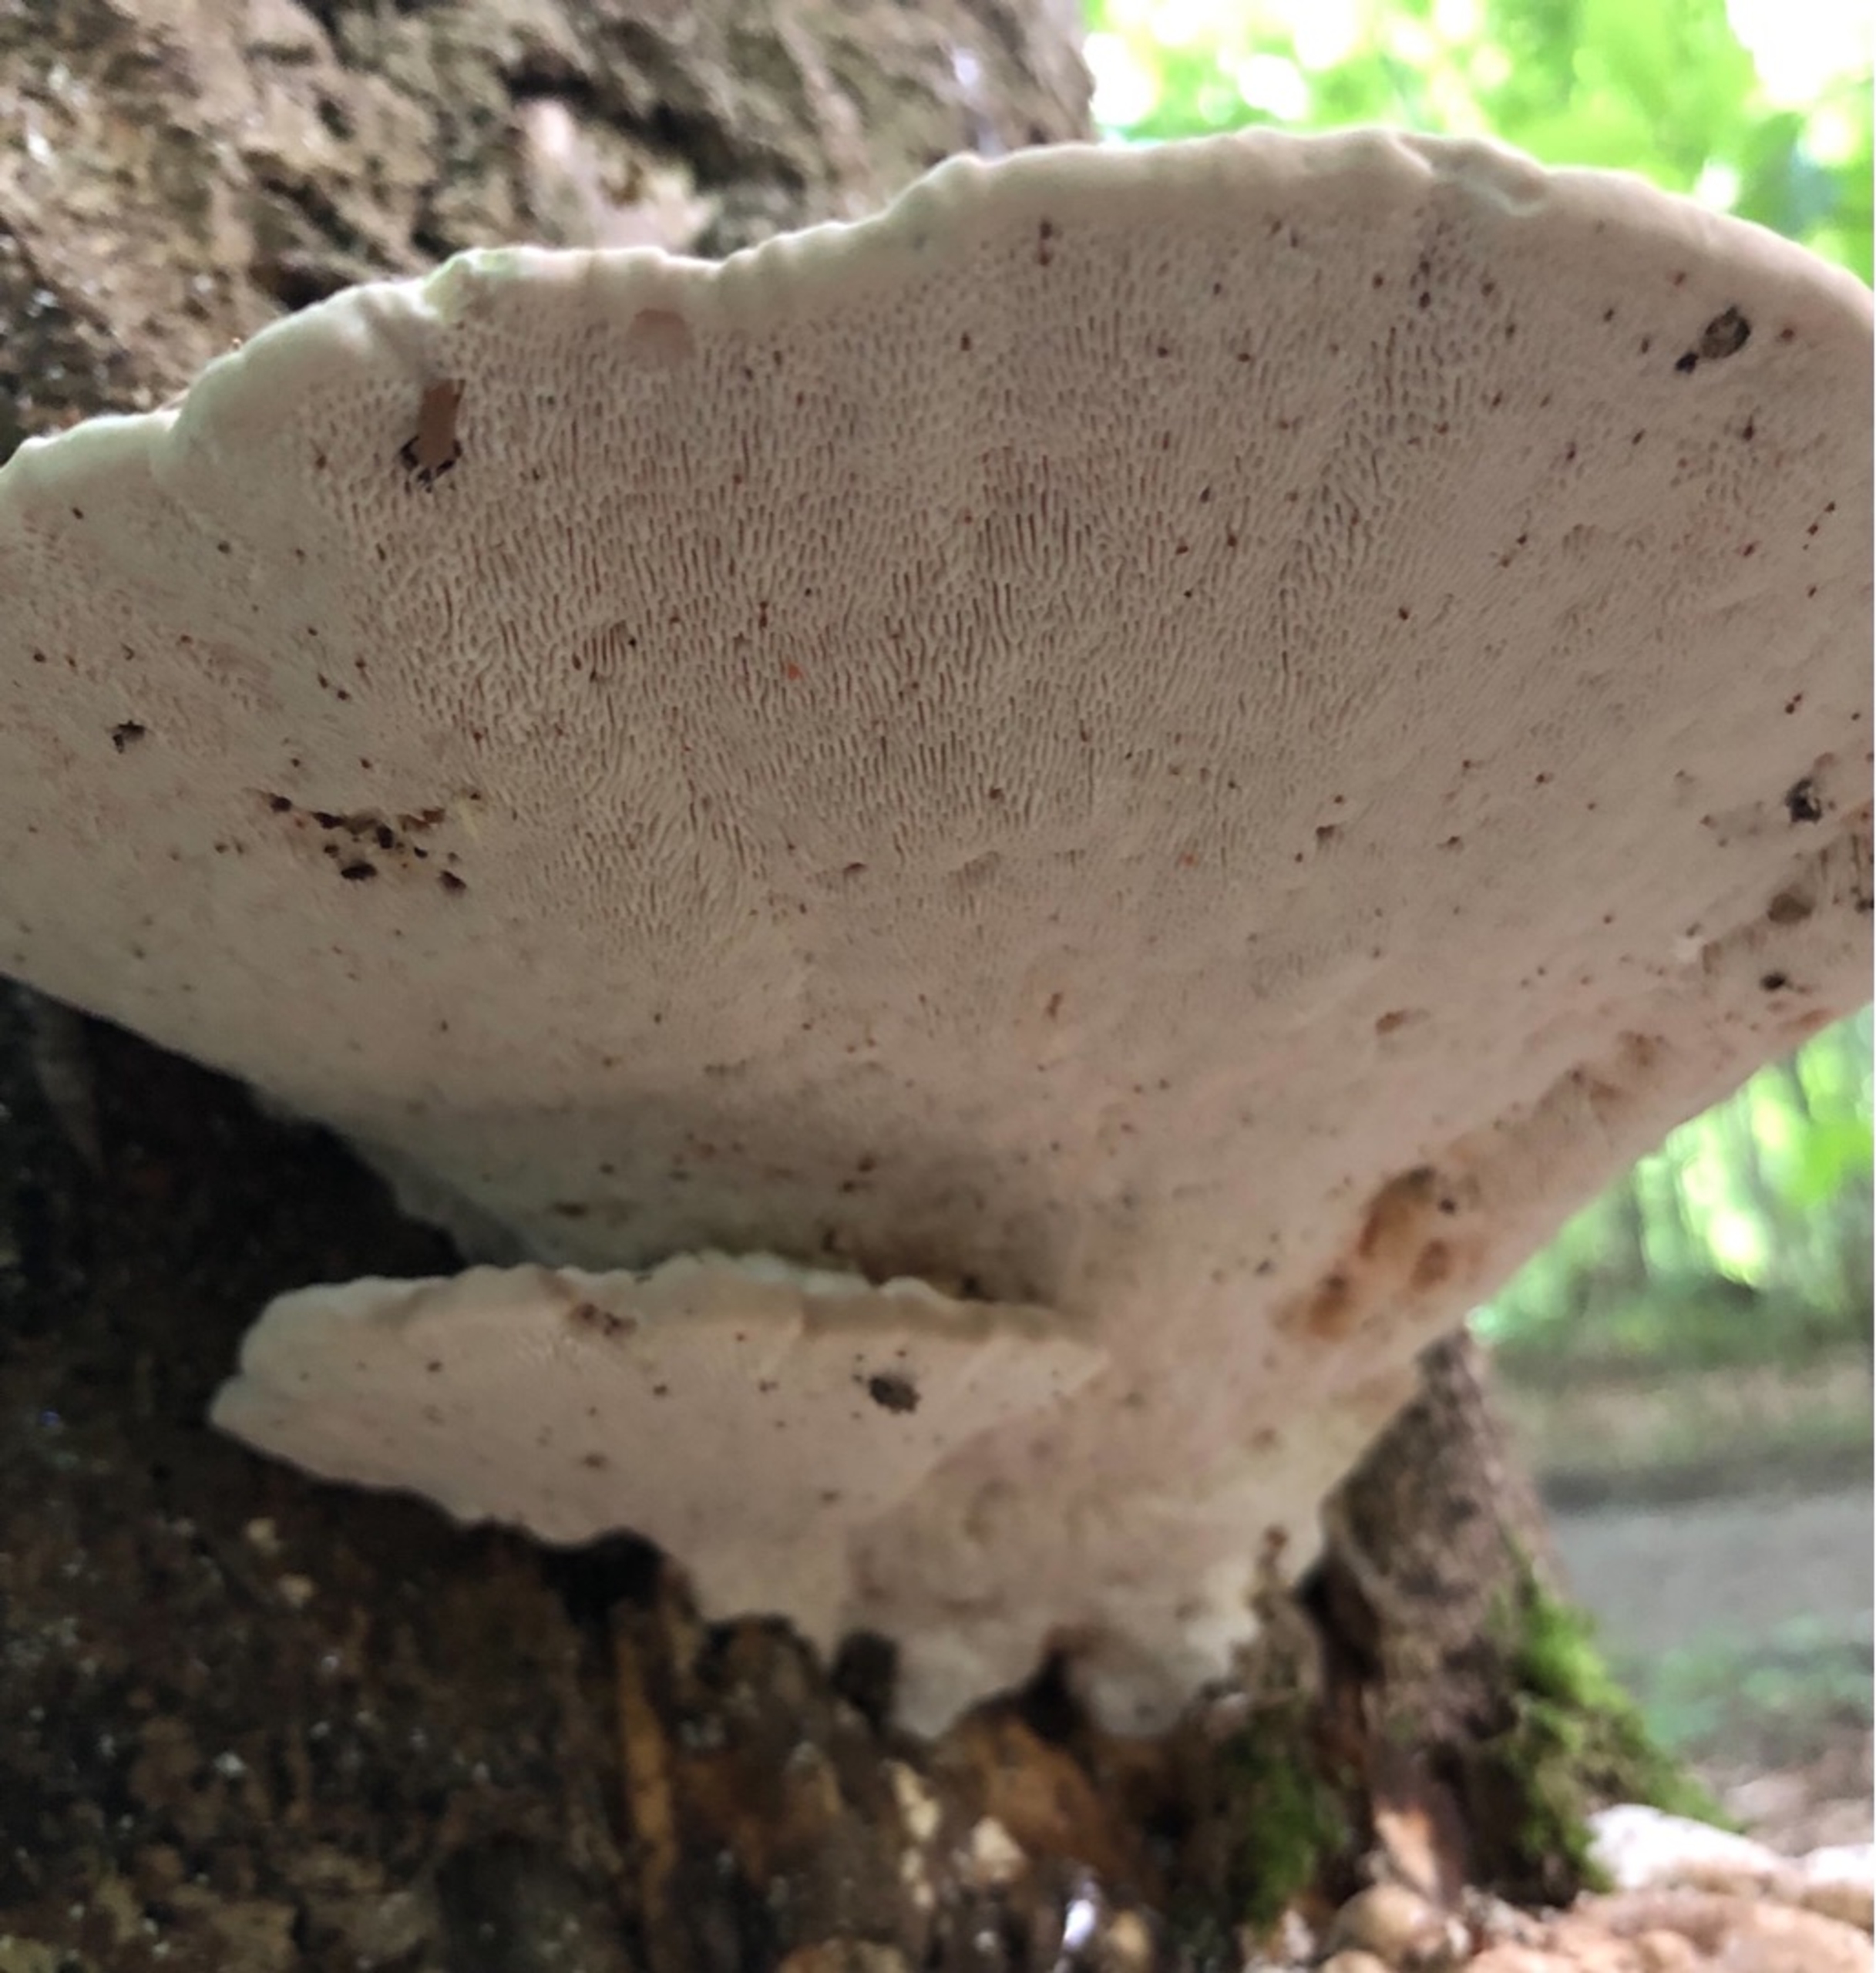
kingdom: Fungi
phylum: Basidiomycota
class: Agaricomycetes
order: Polyporales
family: Polyporaceae
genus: Trametes
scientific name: Trametes gibbosa
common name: Puklet læderporesvamp
